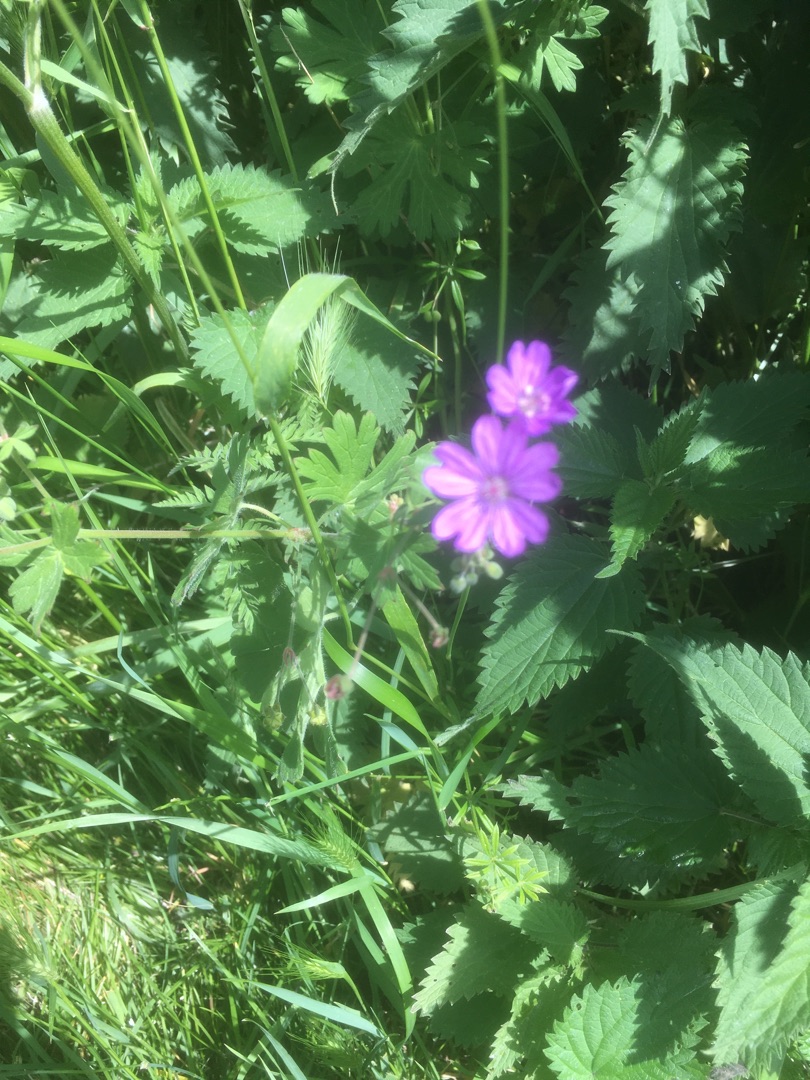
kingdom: Plantae
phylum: Tracheophyta
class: Magnoliopsida
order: Geraniales
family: Geraniaceae
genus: Geranium
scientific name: Geranium pyrenaicum
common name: Pyrenæisk storkenæb
